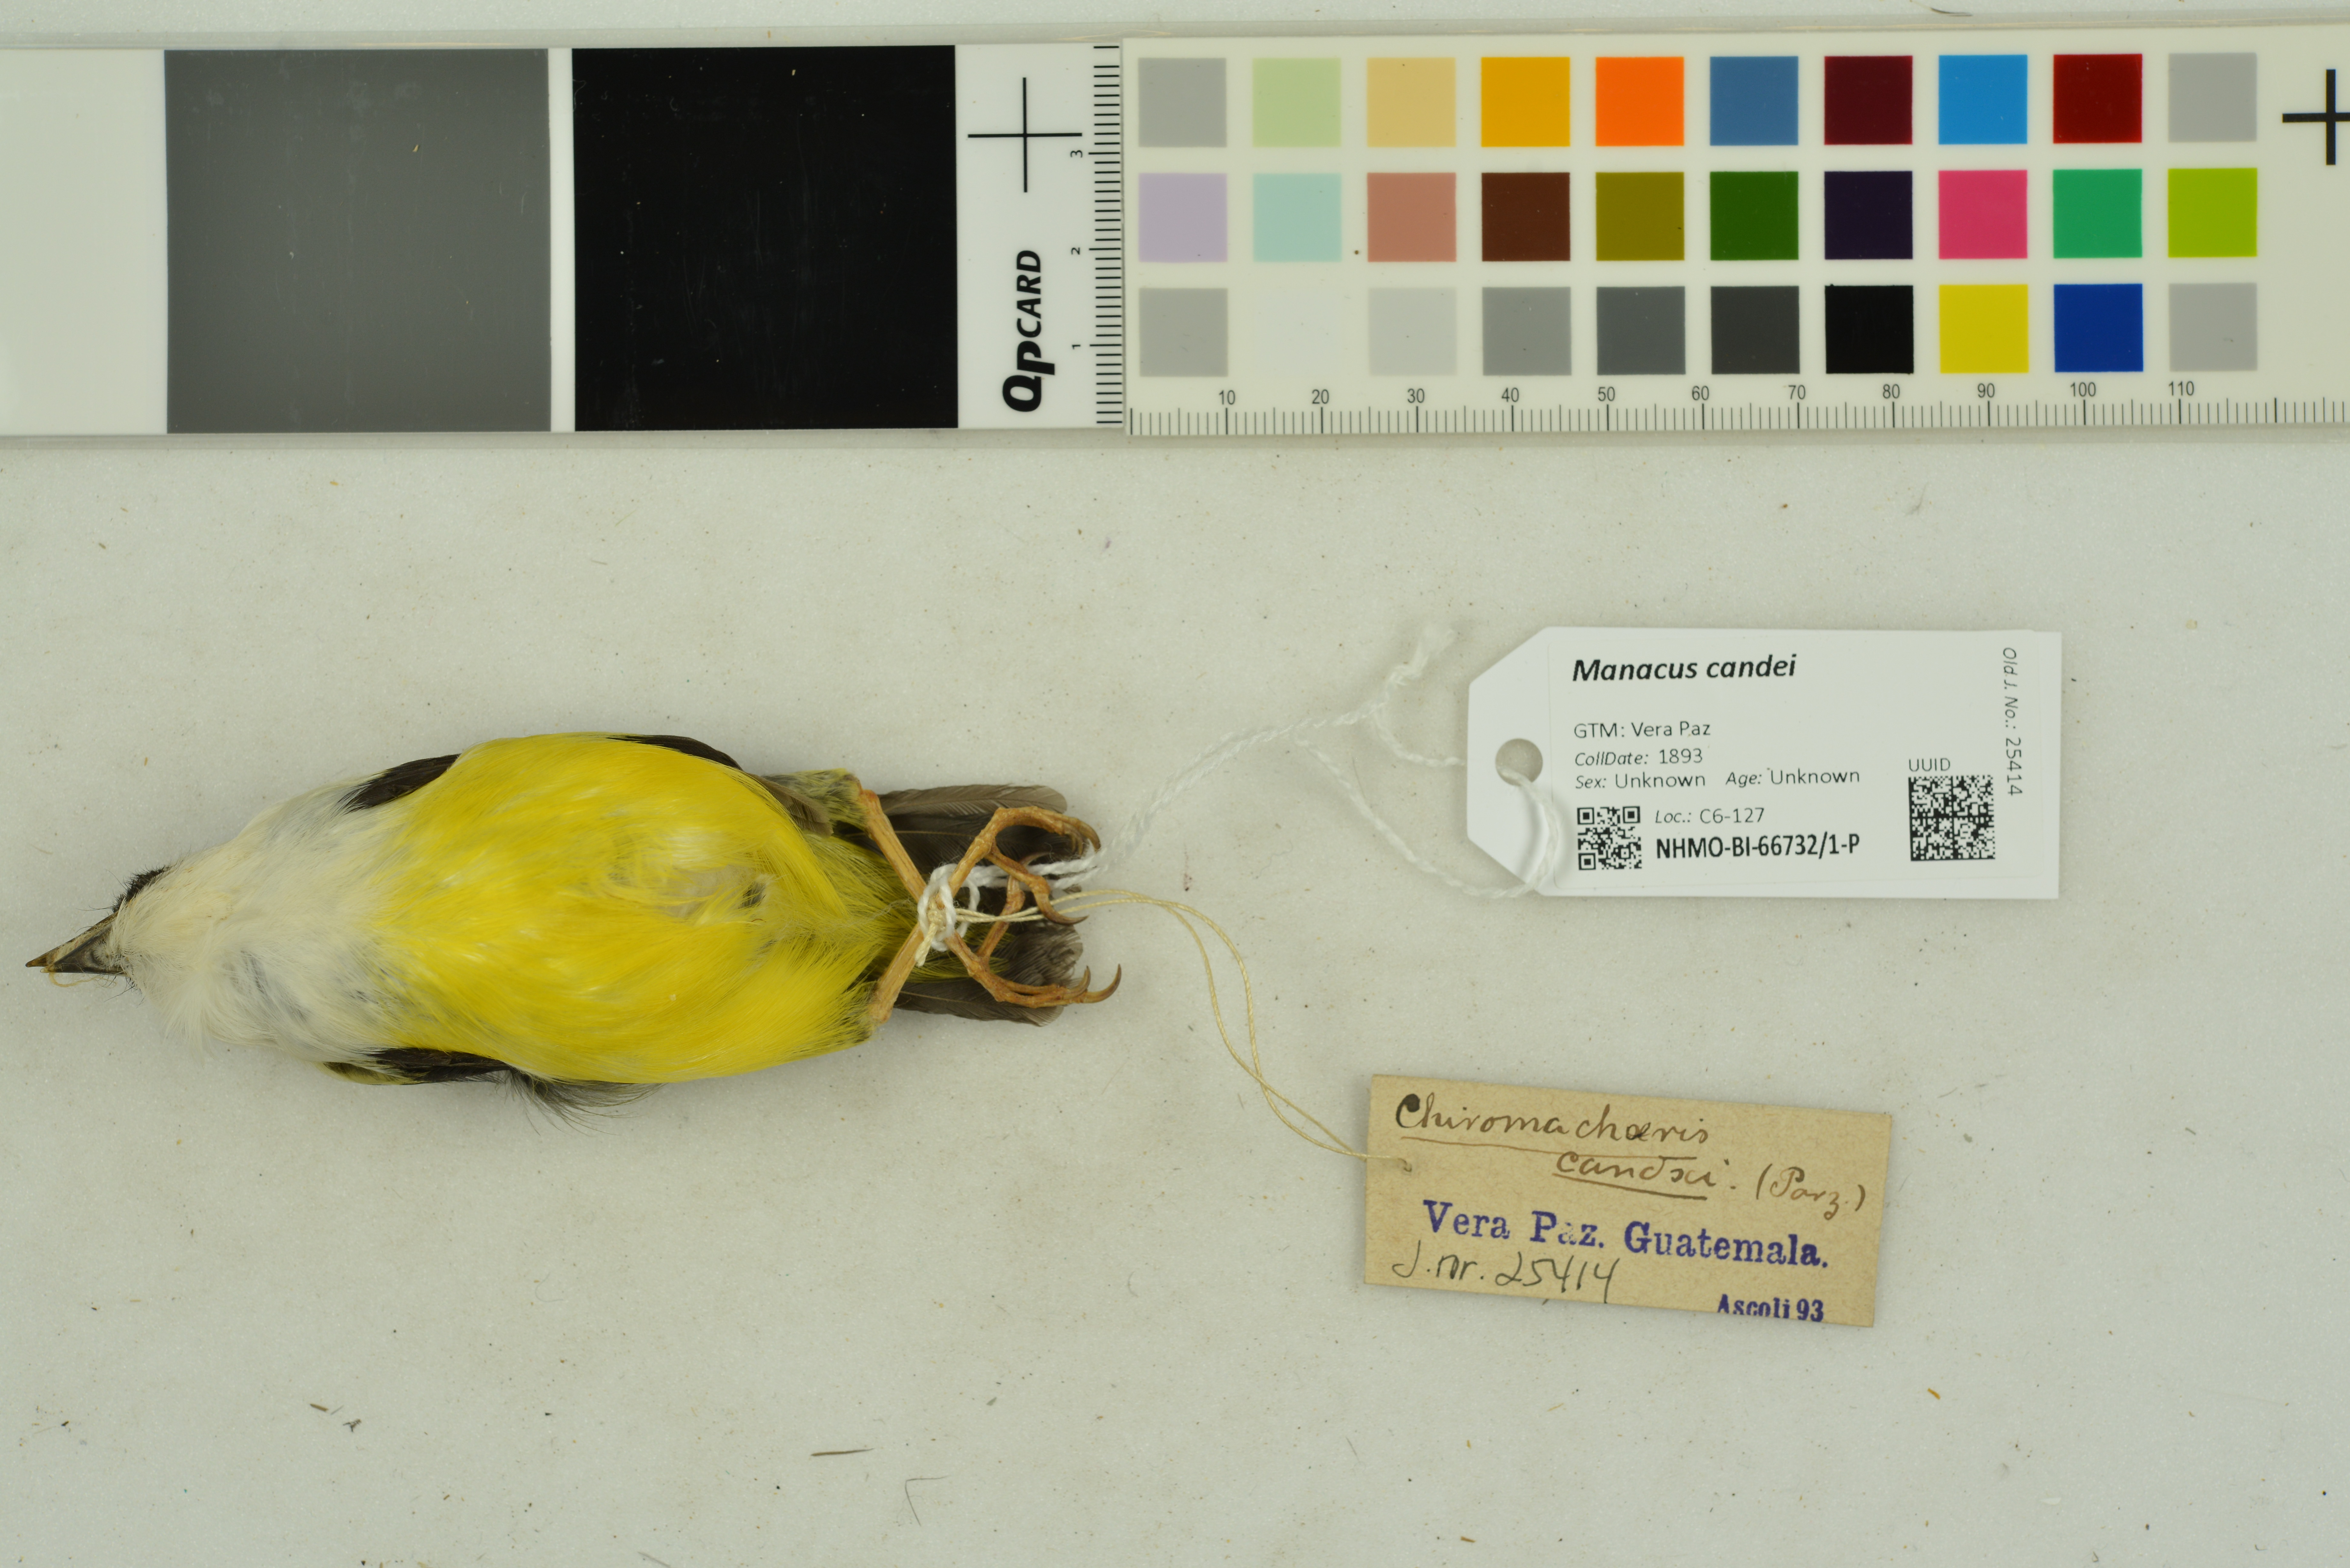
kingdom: Animalia
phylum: Chordata
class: Aves
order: Passeriformes
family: Pipridae
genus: Manacus
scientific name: Manacus candei
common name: White-collared manakin
